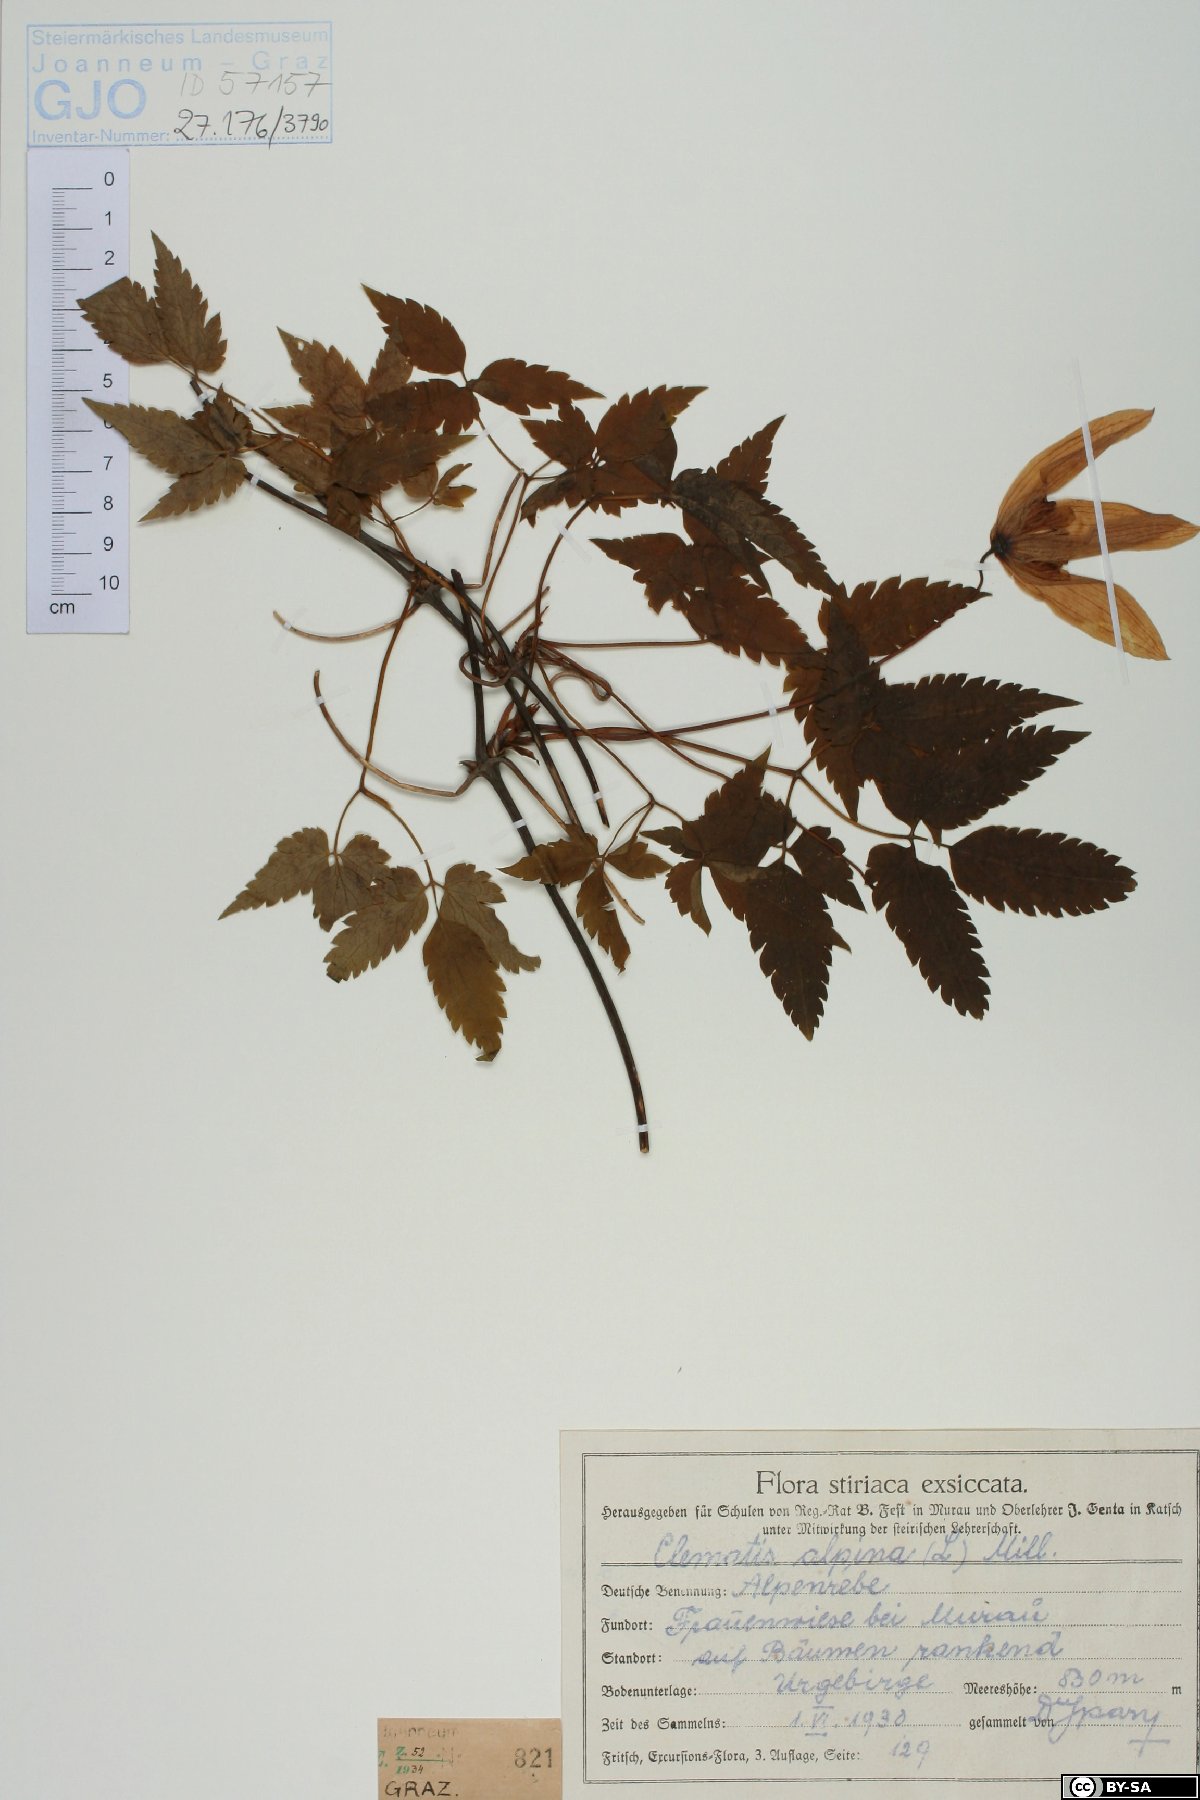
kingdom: Plantae
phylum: Tracheophyta
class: Magnoliopsida
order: Ranunculales
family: Ranunculaceae
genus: Clematis
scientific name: Clematis alpina
